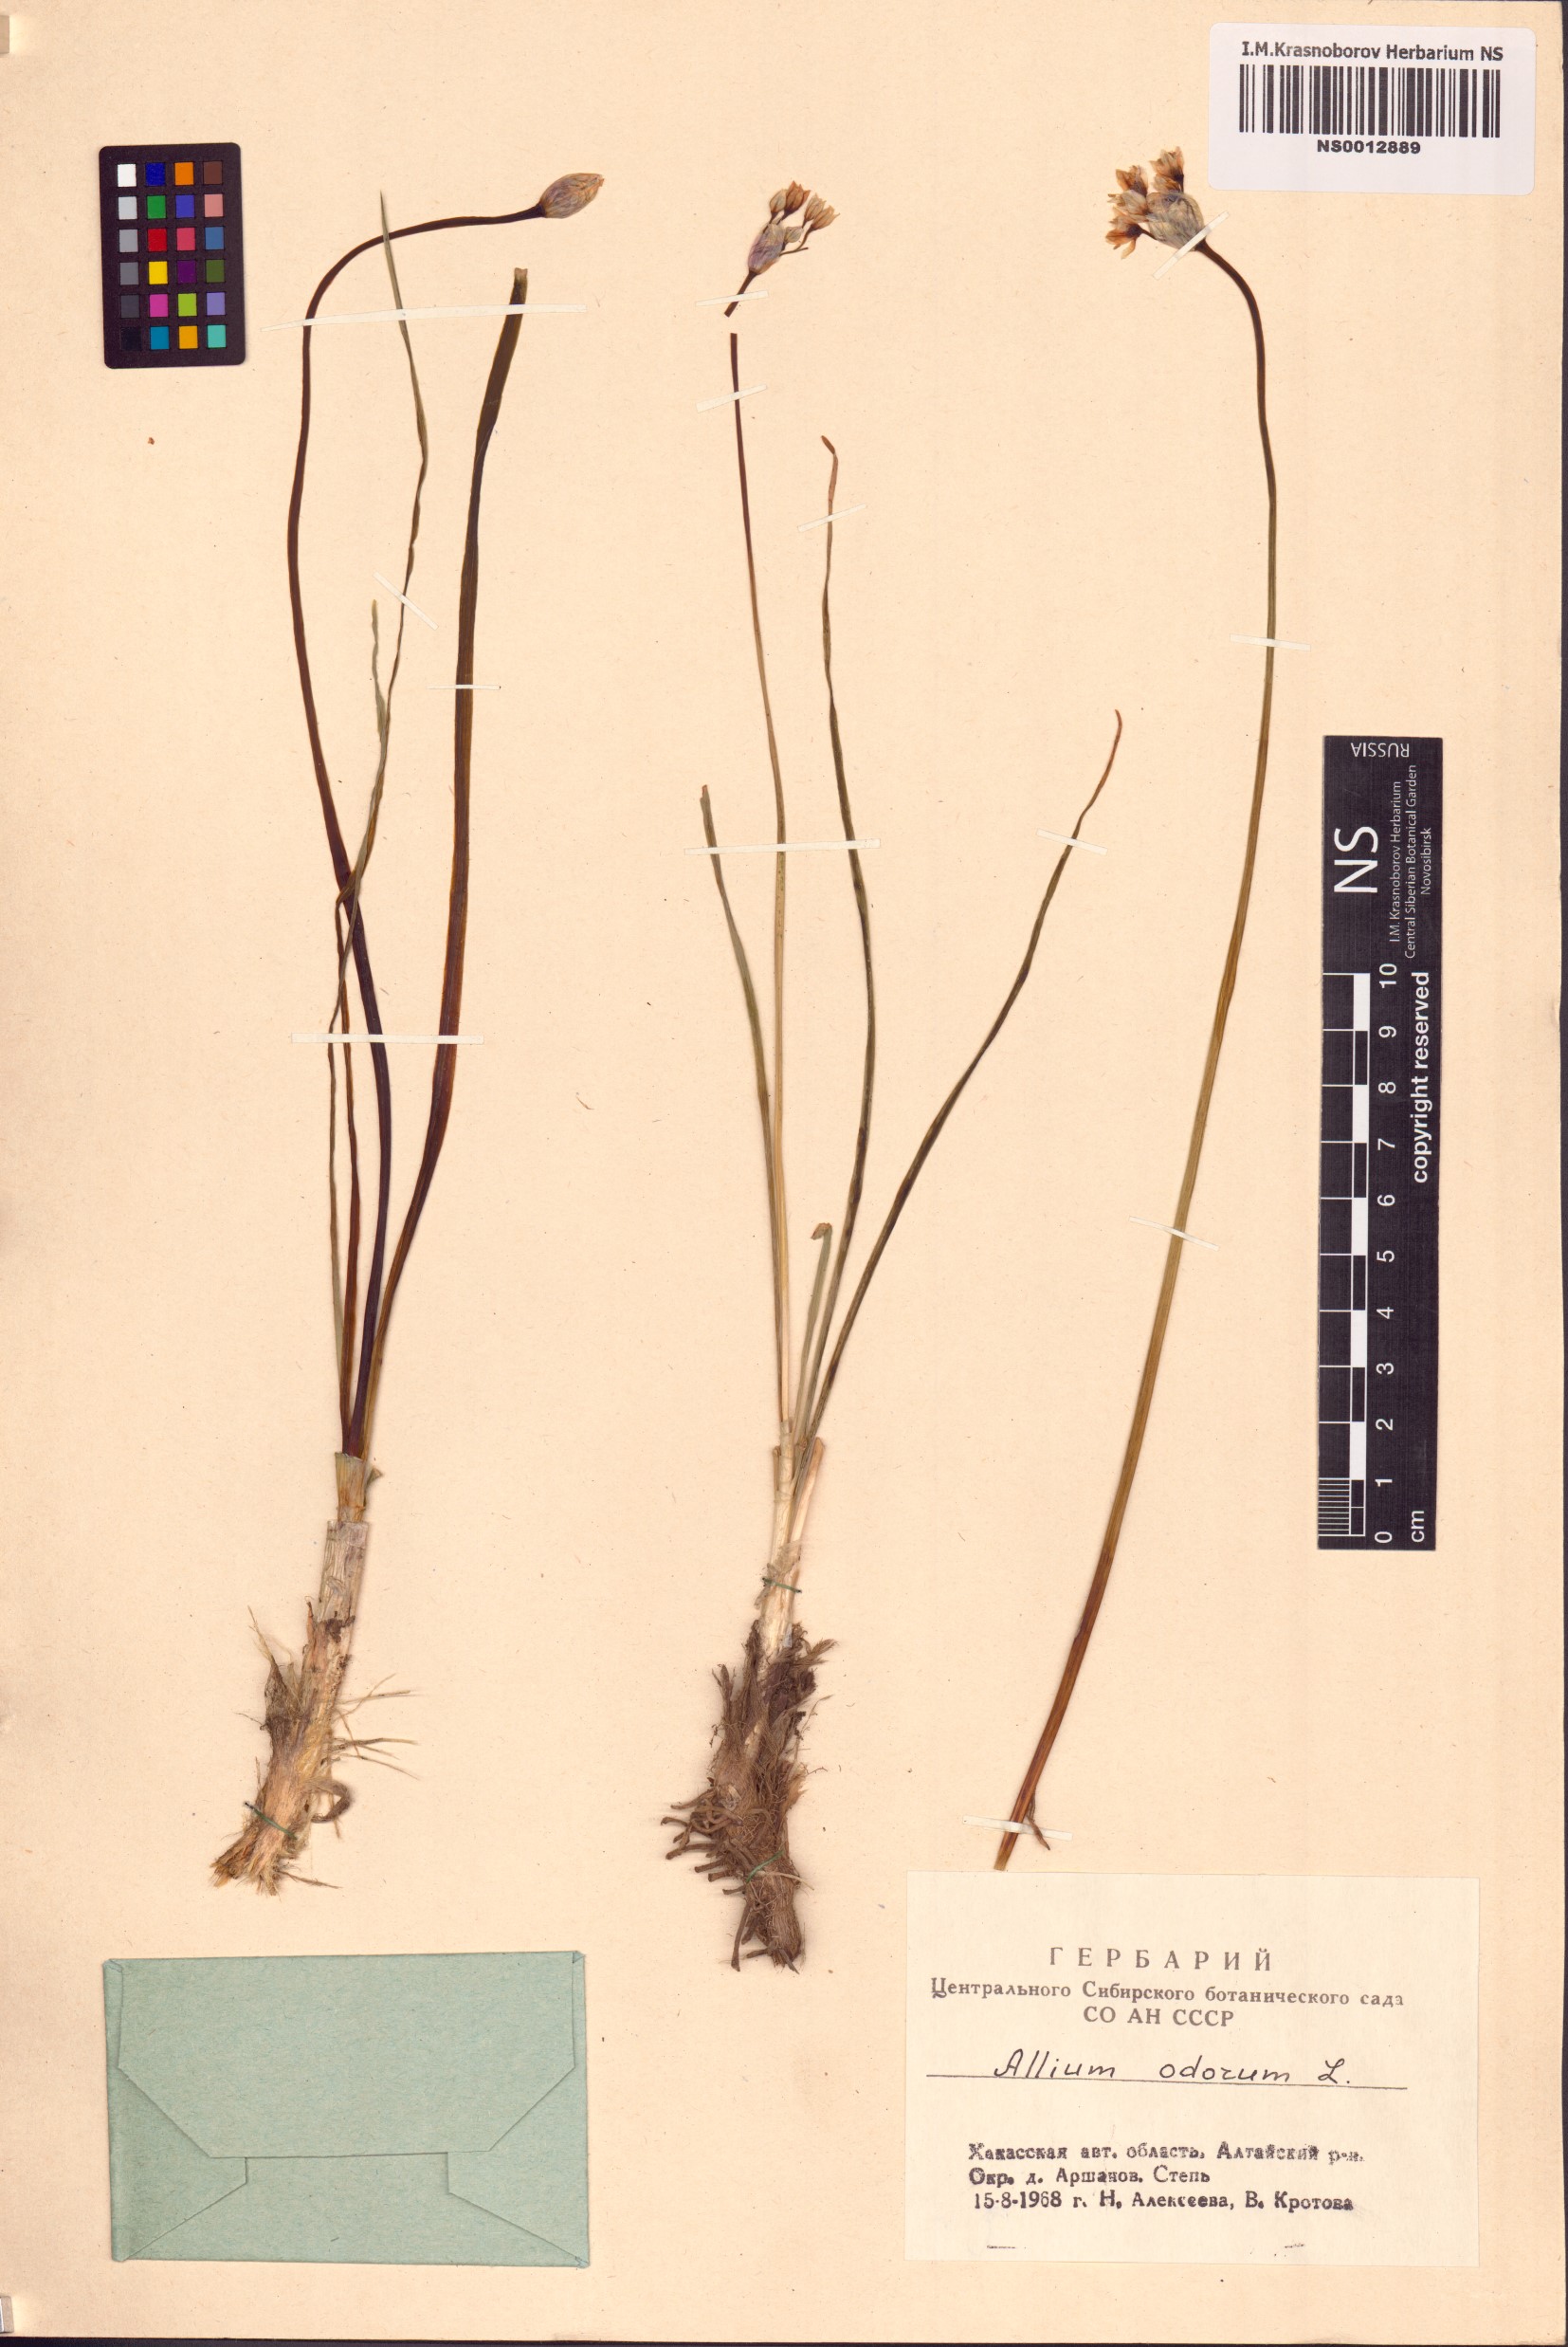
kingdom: Plantae
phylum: Tracheophyta
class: Liliopsida
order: Asparagales
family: Amaryllidaceae
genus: Allium
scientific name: Allium ramosum
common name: Fragrant garlic
